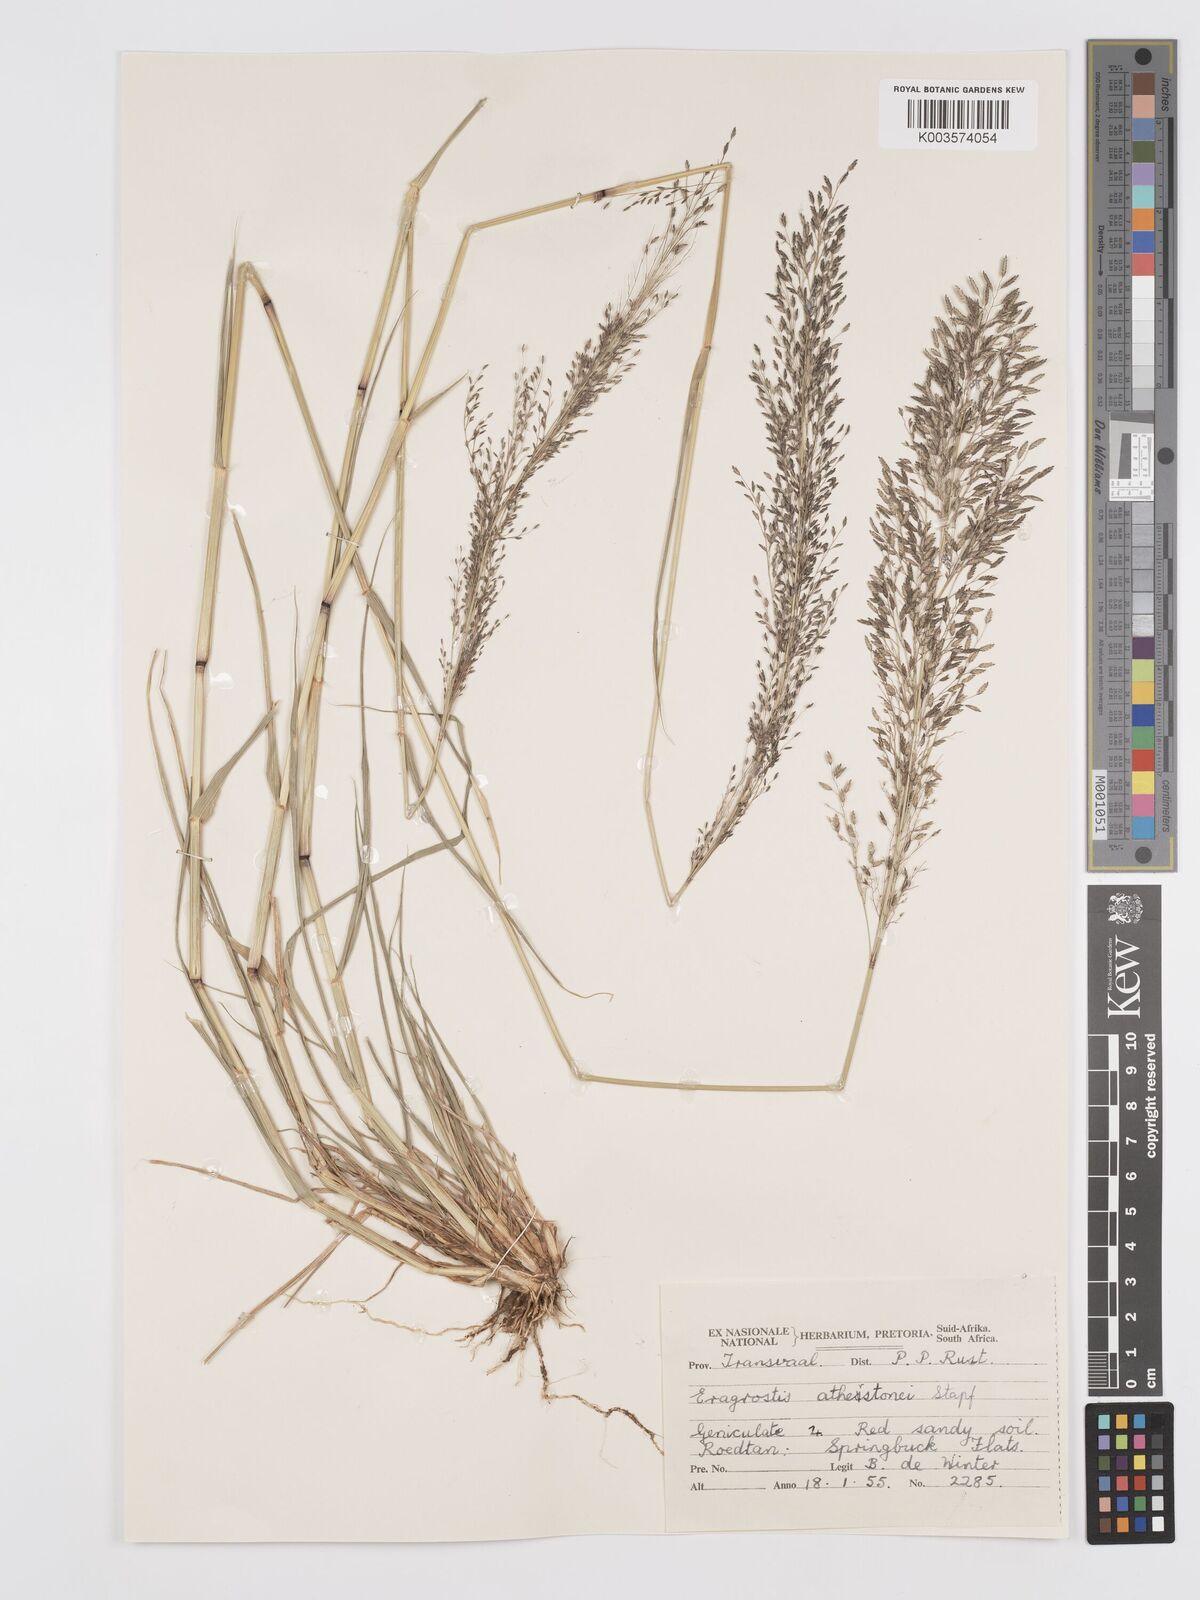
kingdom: Plantae
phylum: Tracheophyta
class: Liliopsida
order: Poales
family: Poaceae
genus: Eragrostis
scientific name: Eragrostis cylindriflora
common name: Cylinderflower lovegrass
